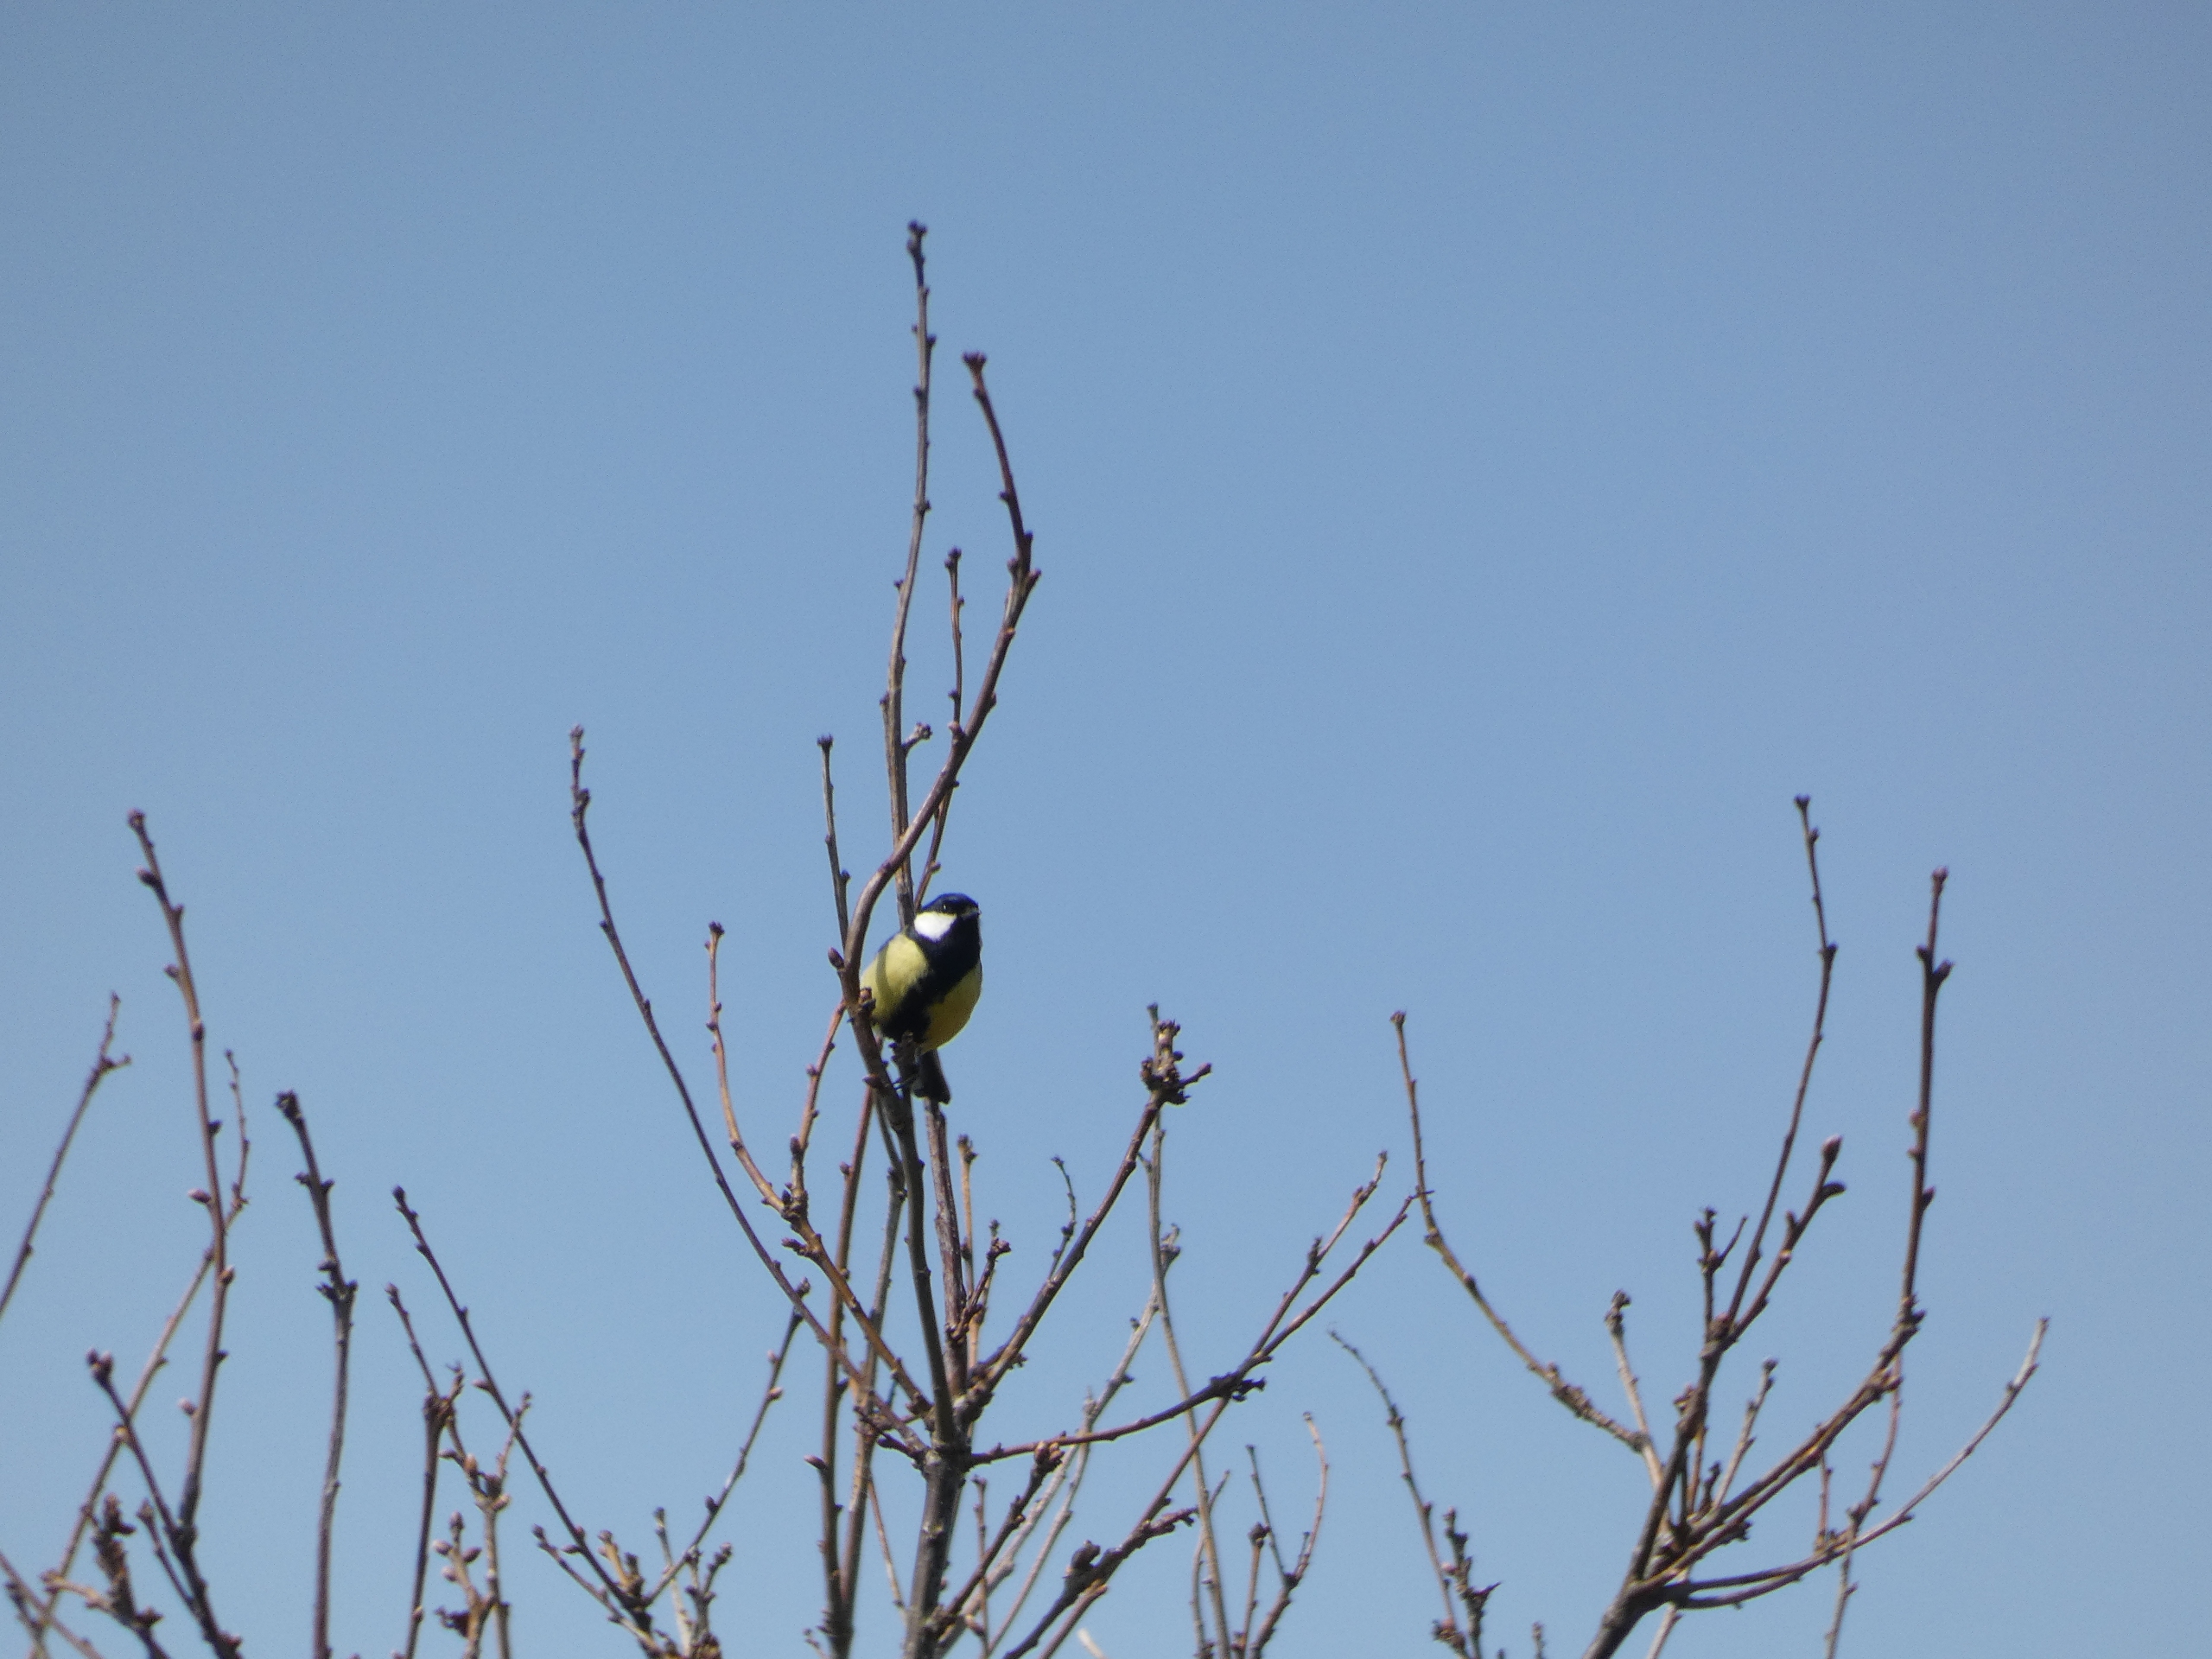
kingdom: Animalia
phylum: Chordata
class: Aves
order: Passeriformes
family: Paridae
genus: Parus
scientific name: Parus major
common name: Musvit
